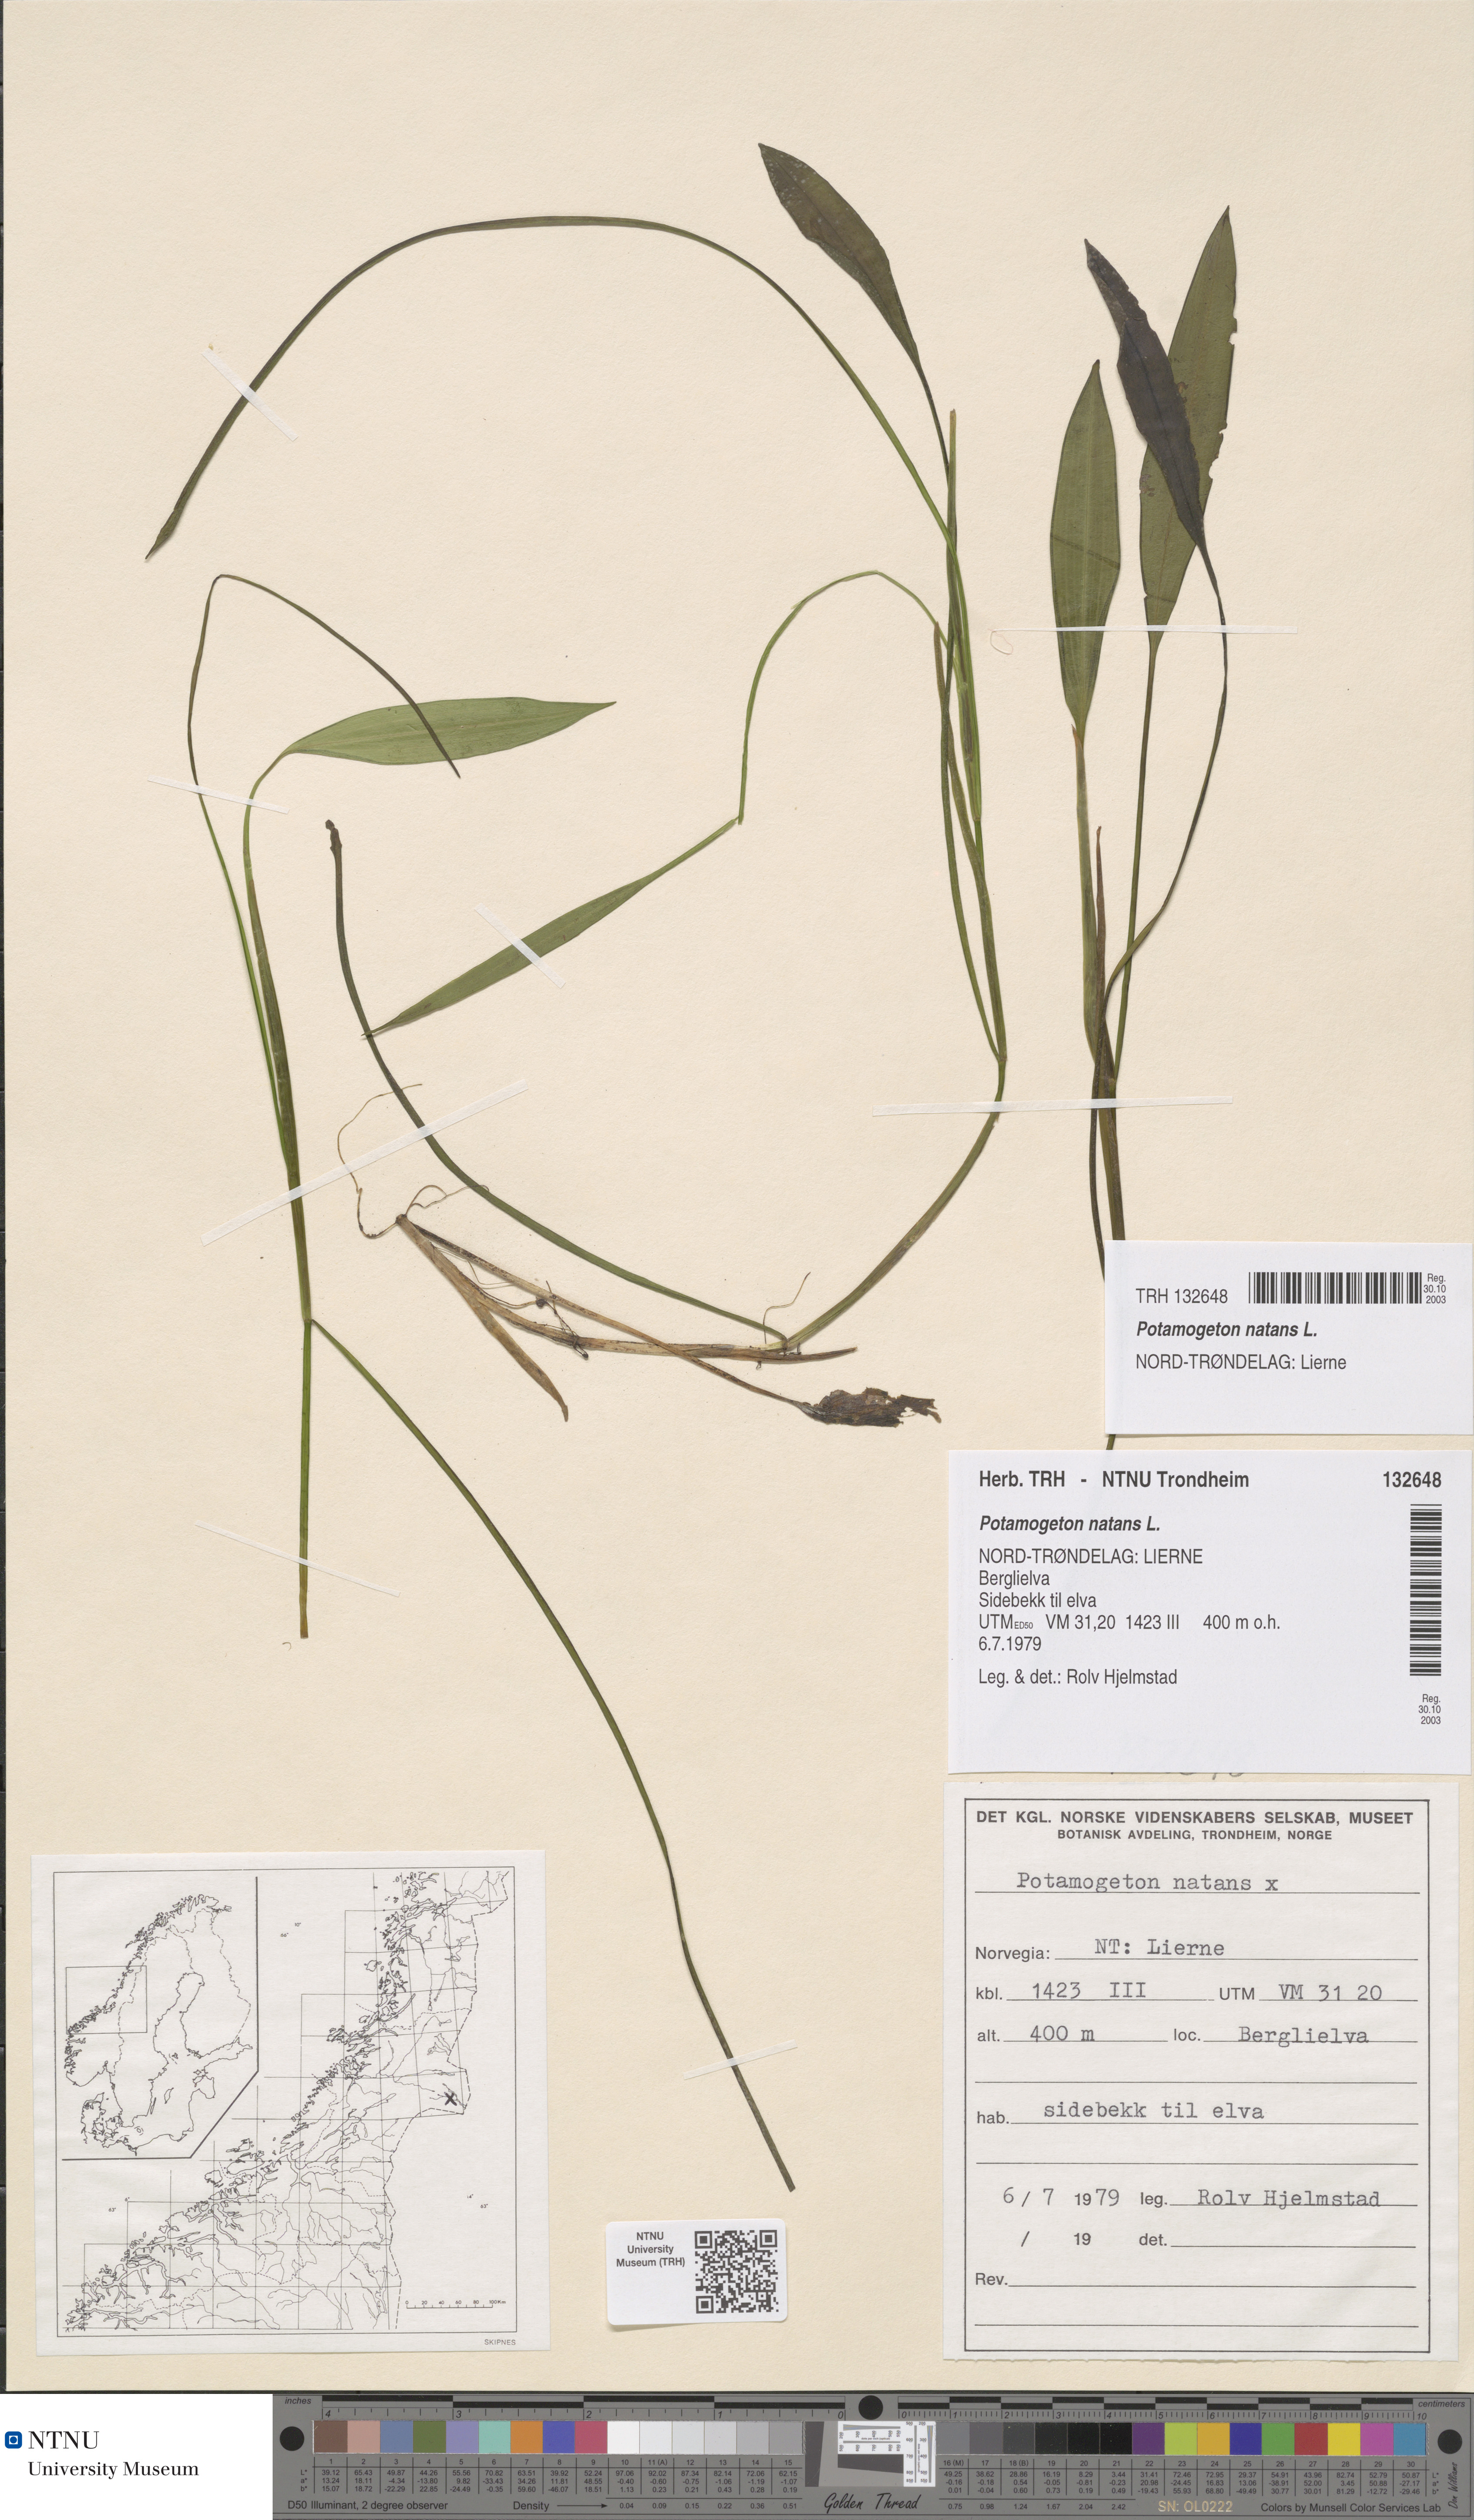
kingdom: Plantae
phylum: Tracheophyta
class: Liliopsida
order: Alismatales
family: Potamogetonaceae
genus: Potamogeton
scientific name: Potamogeton natans
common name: Broad-leaved pondweed
